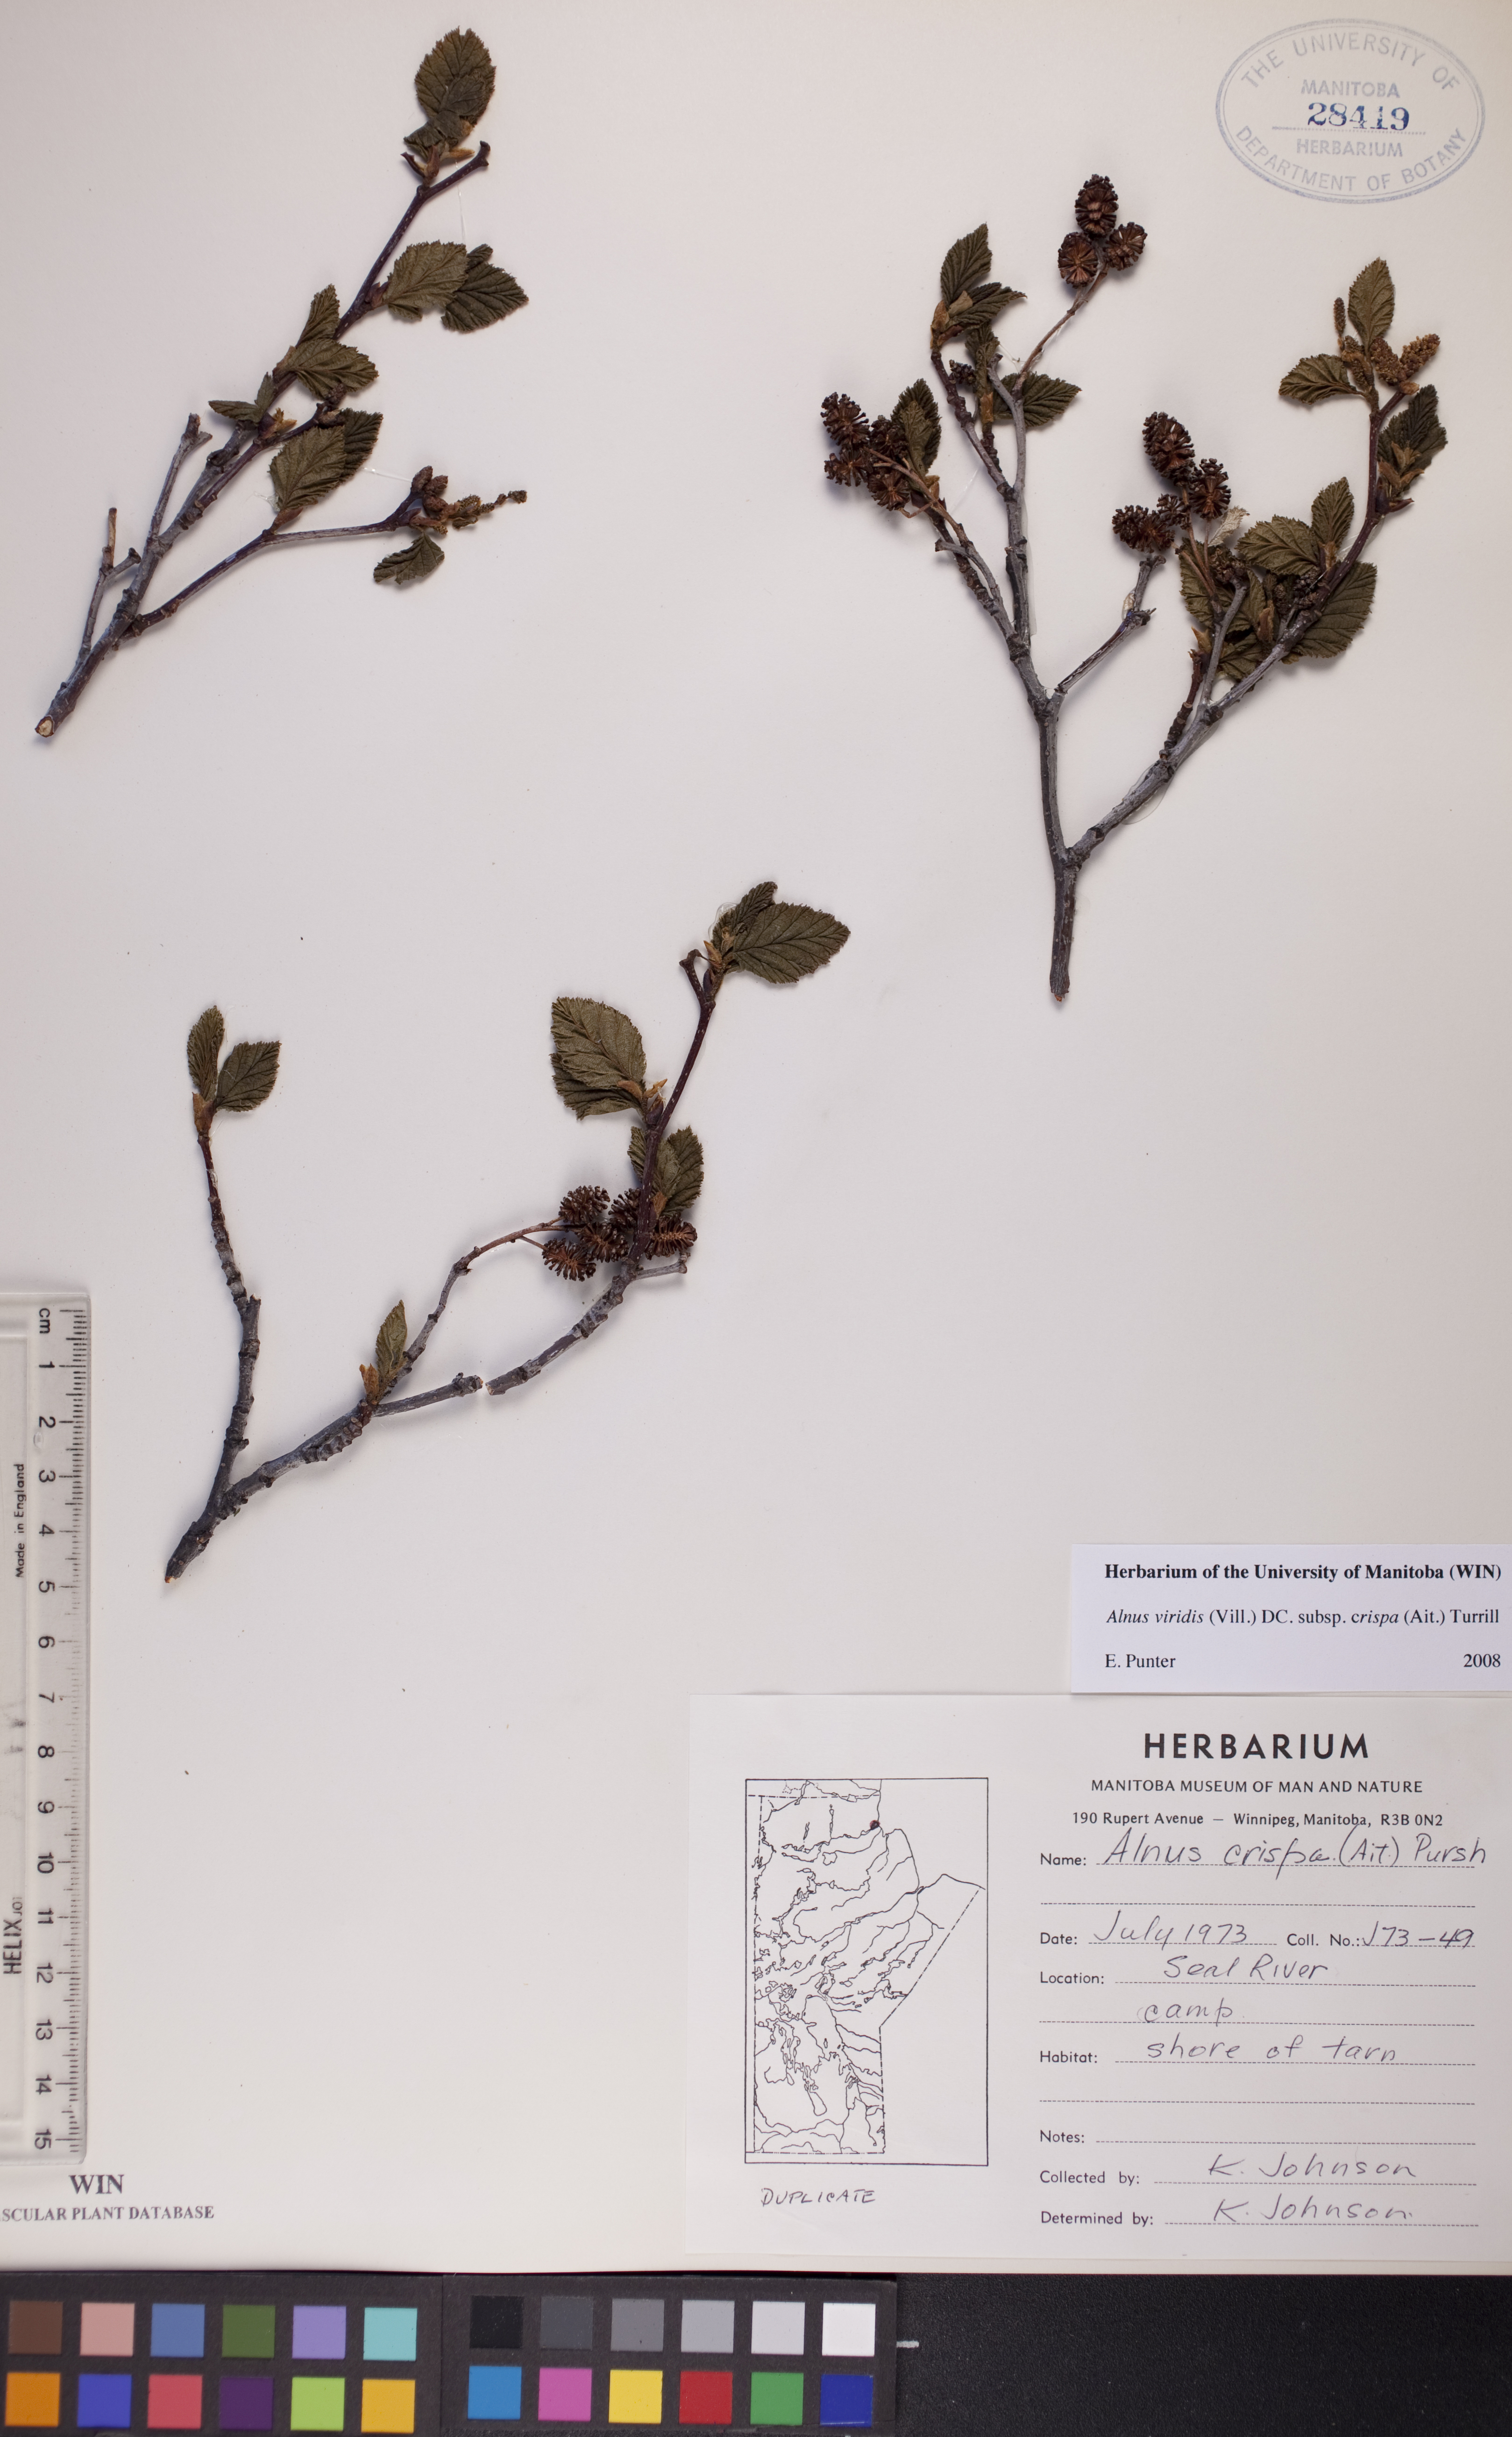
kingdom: Plantae
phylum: Tracheophyta
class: Magnoliopsida
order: Fagales
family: Betulaceae
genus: Alnus
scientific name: Alnus alnobetula
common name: Green alder
